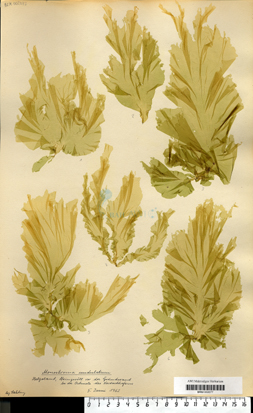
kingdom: Plantae
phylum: Chlorophyta
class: Ulvophyceae
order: Ulvales
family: Gayraliaceae
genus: Protomonostroma
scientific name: Protomonostroma undulatum
